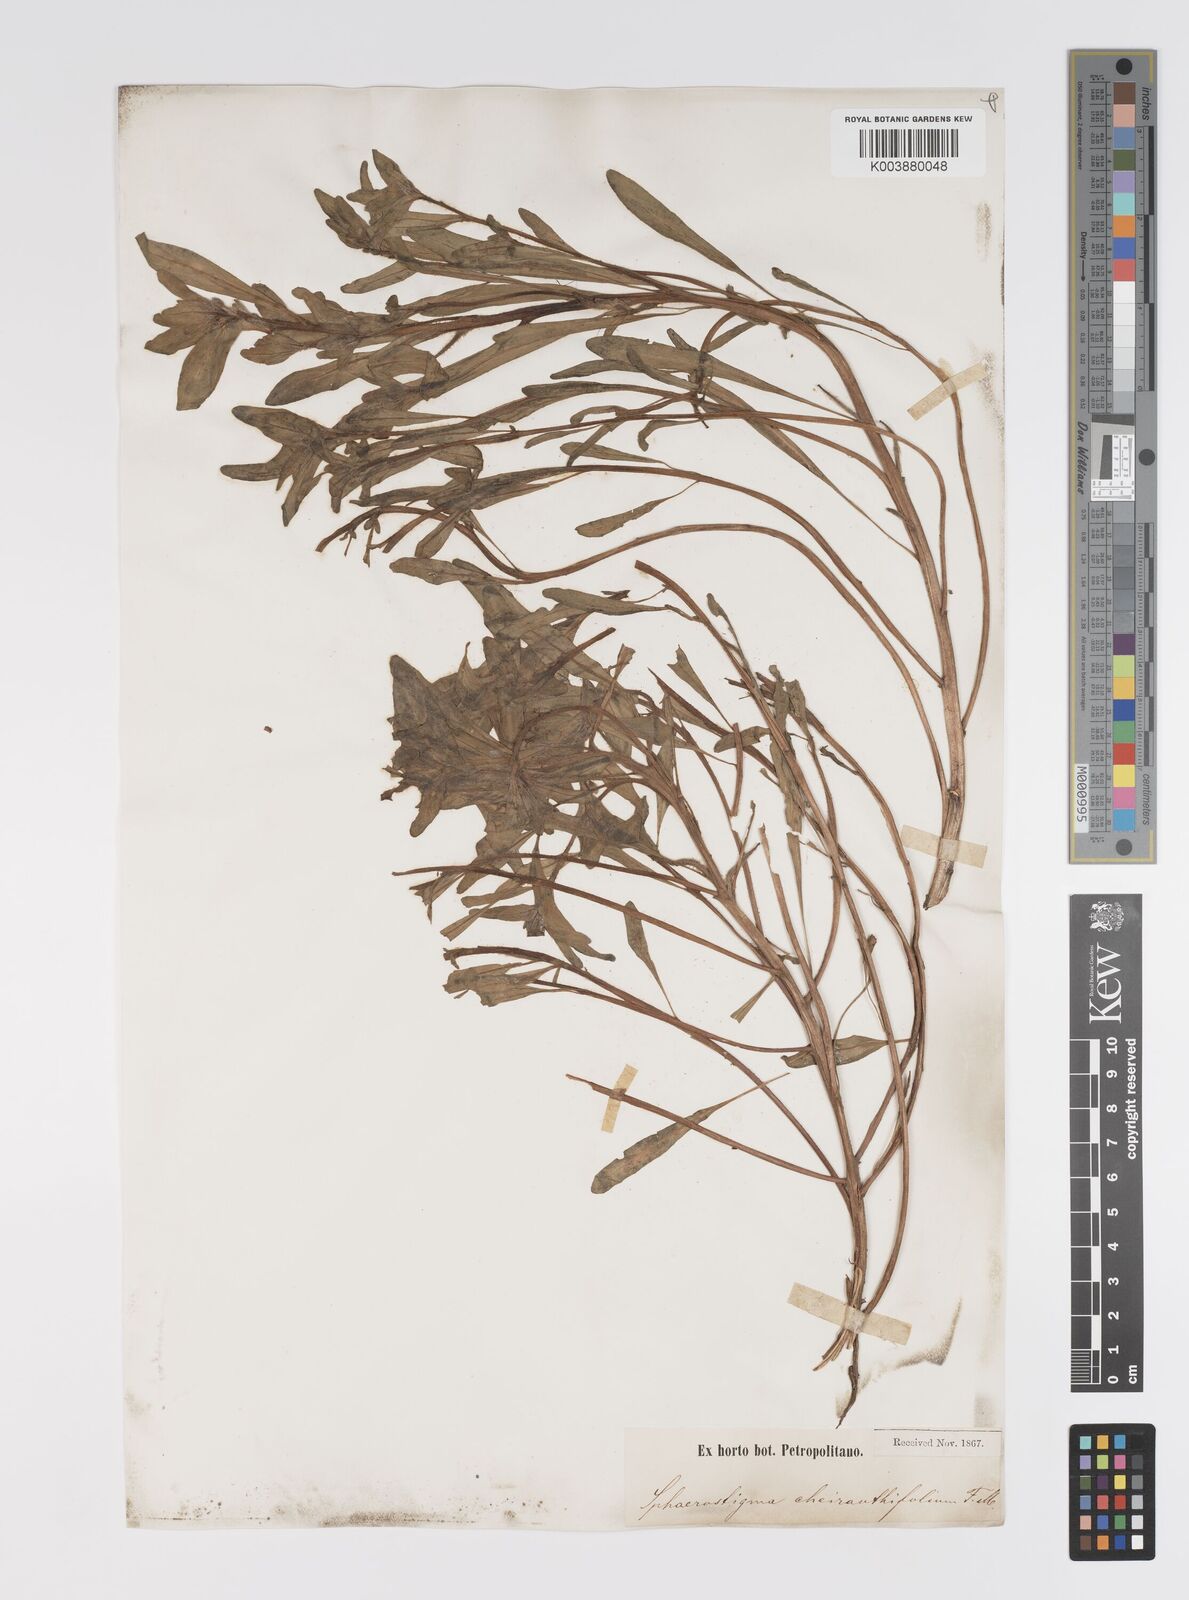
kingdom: Plantae
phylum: Tracheophyta
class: Magnoliopsida
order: Myrtales
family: Onagraceae
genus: Camissoniopsis
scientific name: Camissoniopsis cheiranthifolia
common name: Beach suncup
